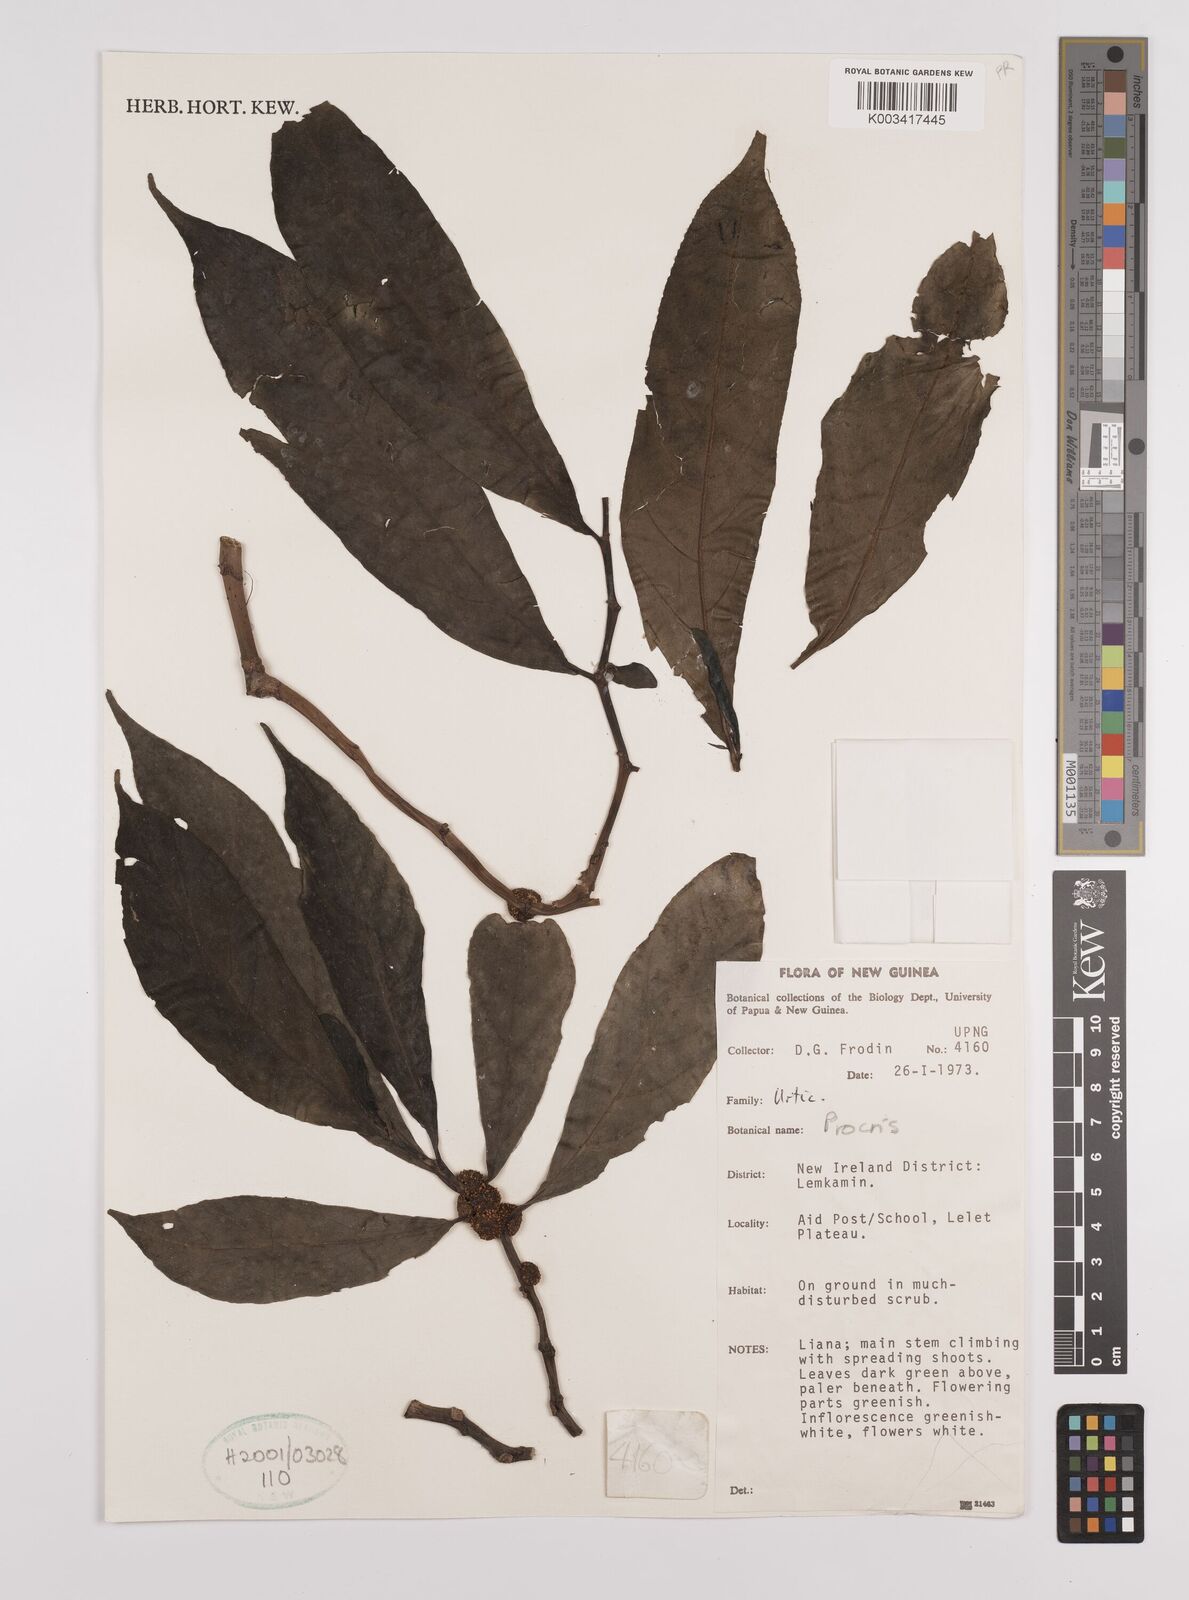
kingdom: Plantae
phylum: Tracheophyta
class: Magnoliopsida
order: Rosales
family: Urticaceae
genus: Procris
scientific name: Procris
